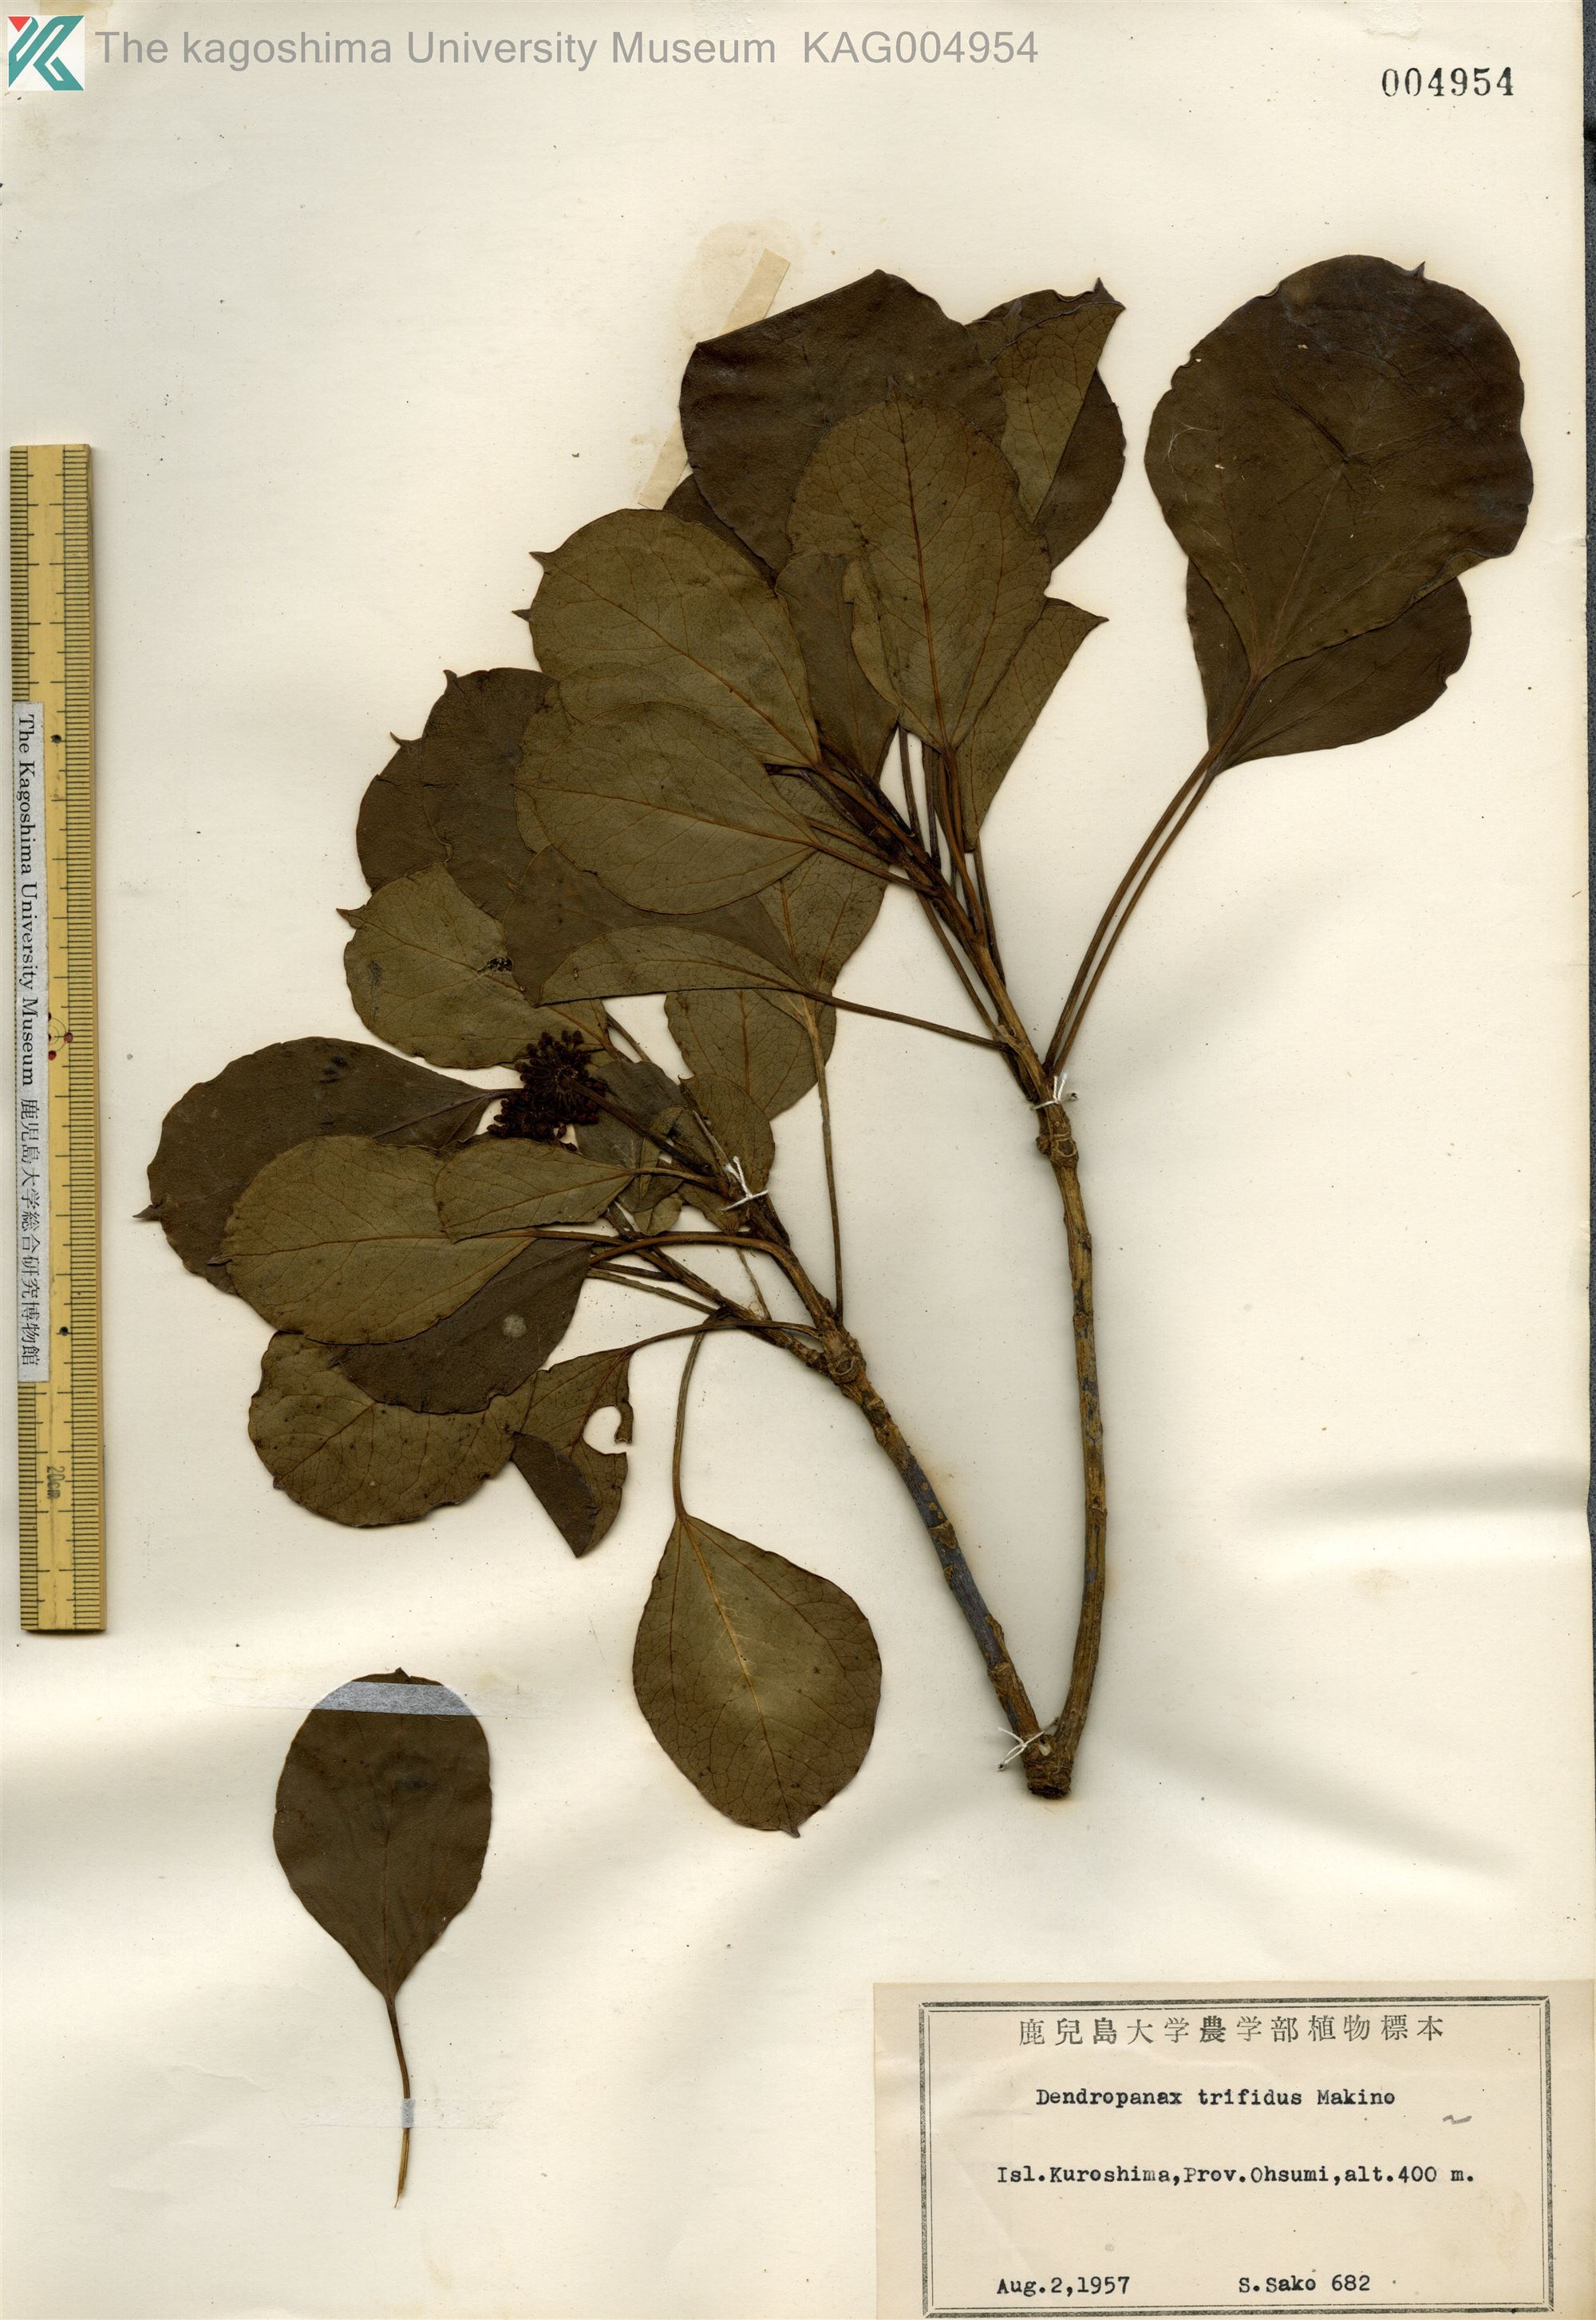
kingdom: Plantae
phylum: Tracheophyta
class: Magnoliopsida
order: Apiales
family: Araliaceae
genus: Dendropanax
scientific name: Dendropanax trifidus
